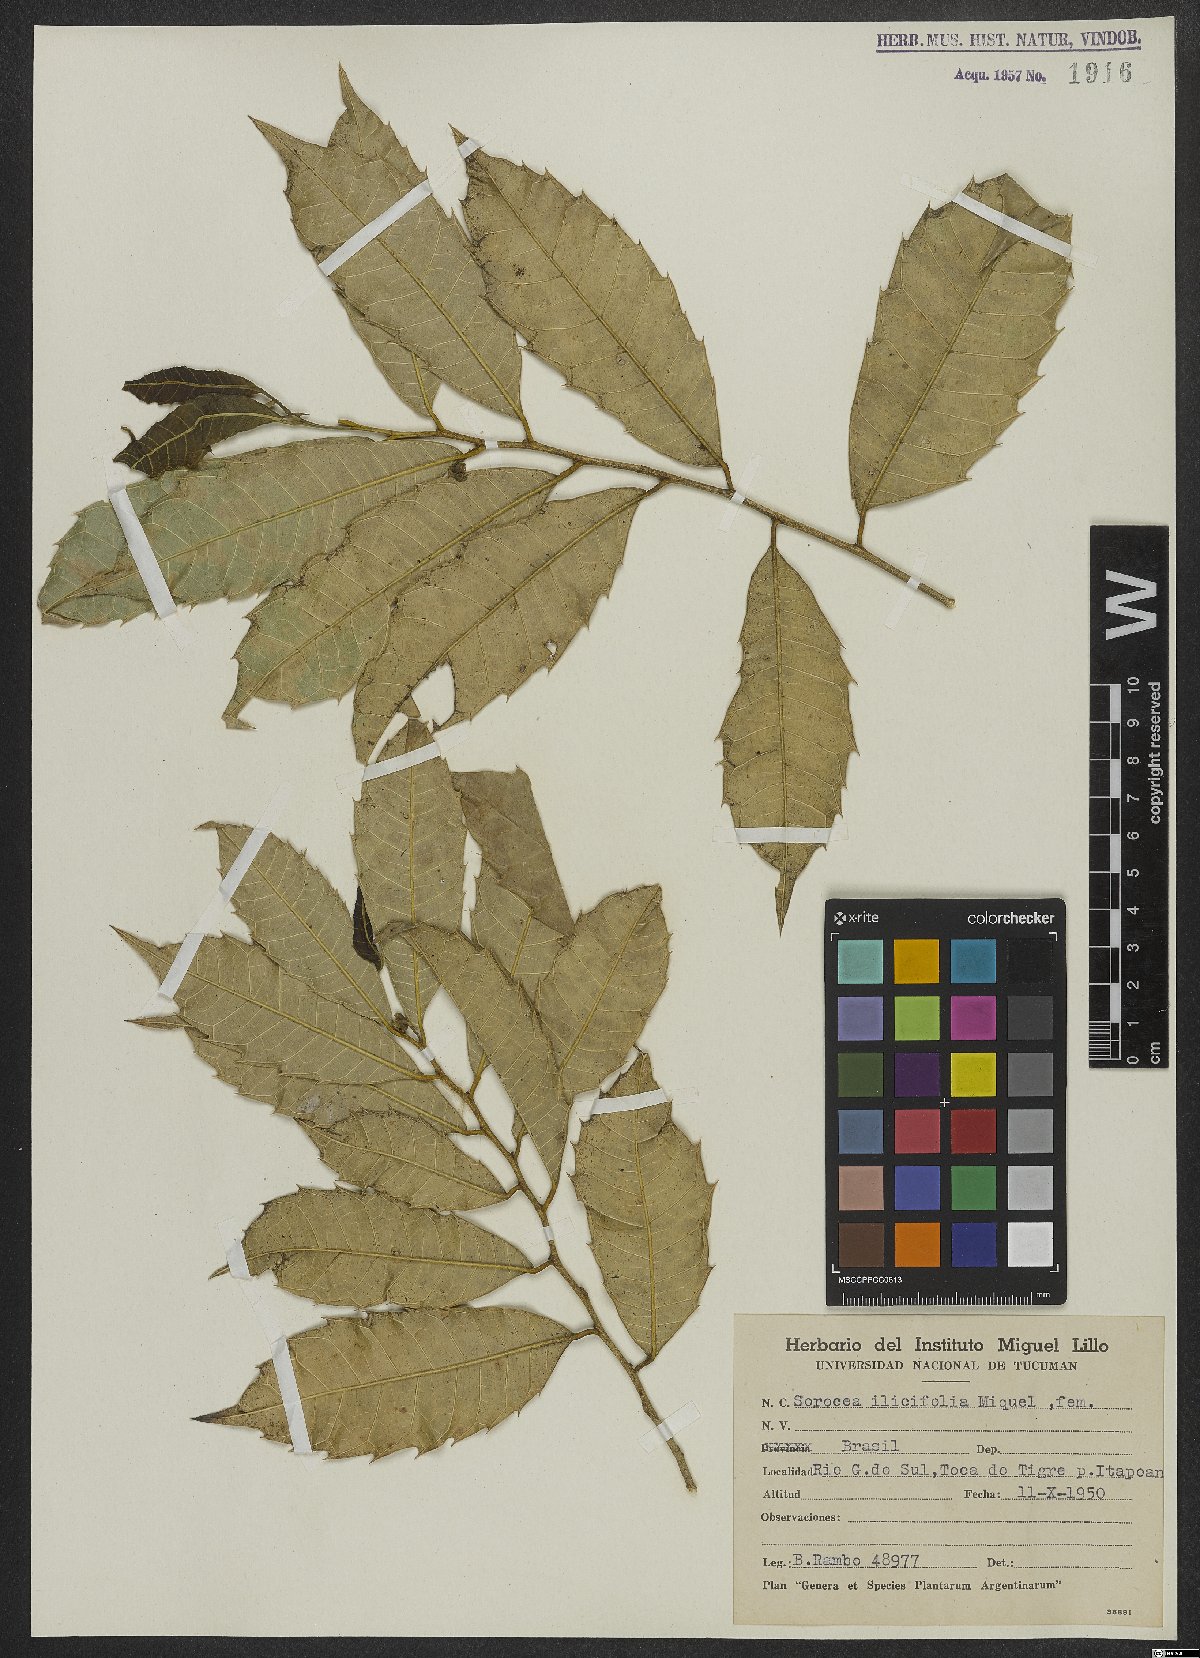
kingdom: Plantae
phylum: Tracheophyta
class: Magnoliopsida
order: Rosales
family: Moraceae
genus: Sorocea
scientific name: Sorocea
